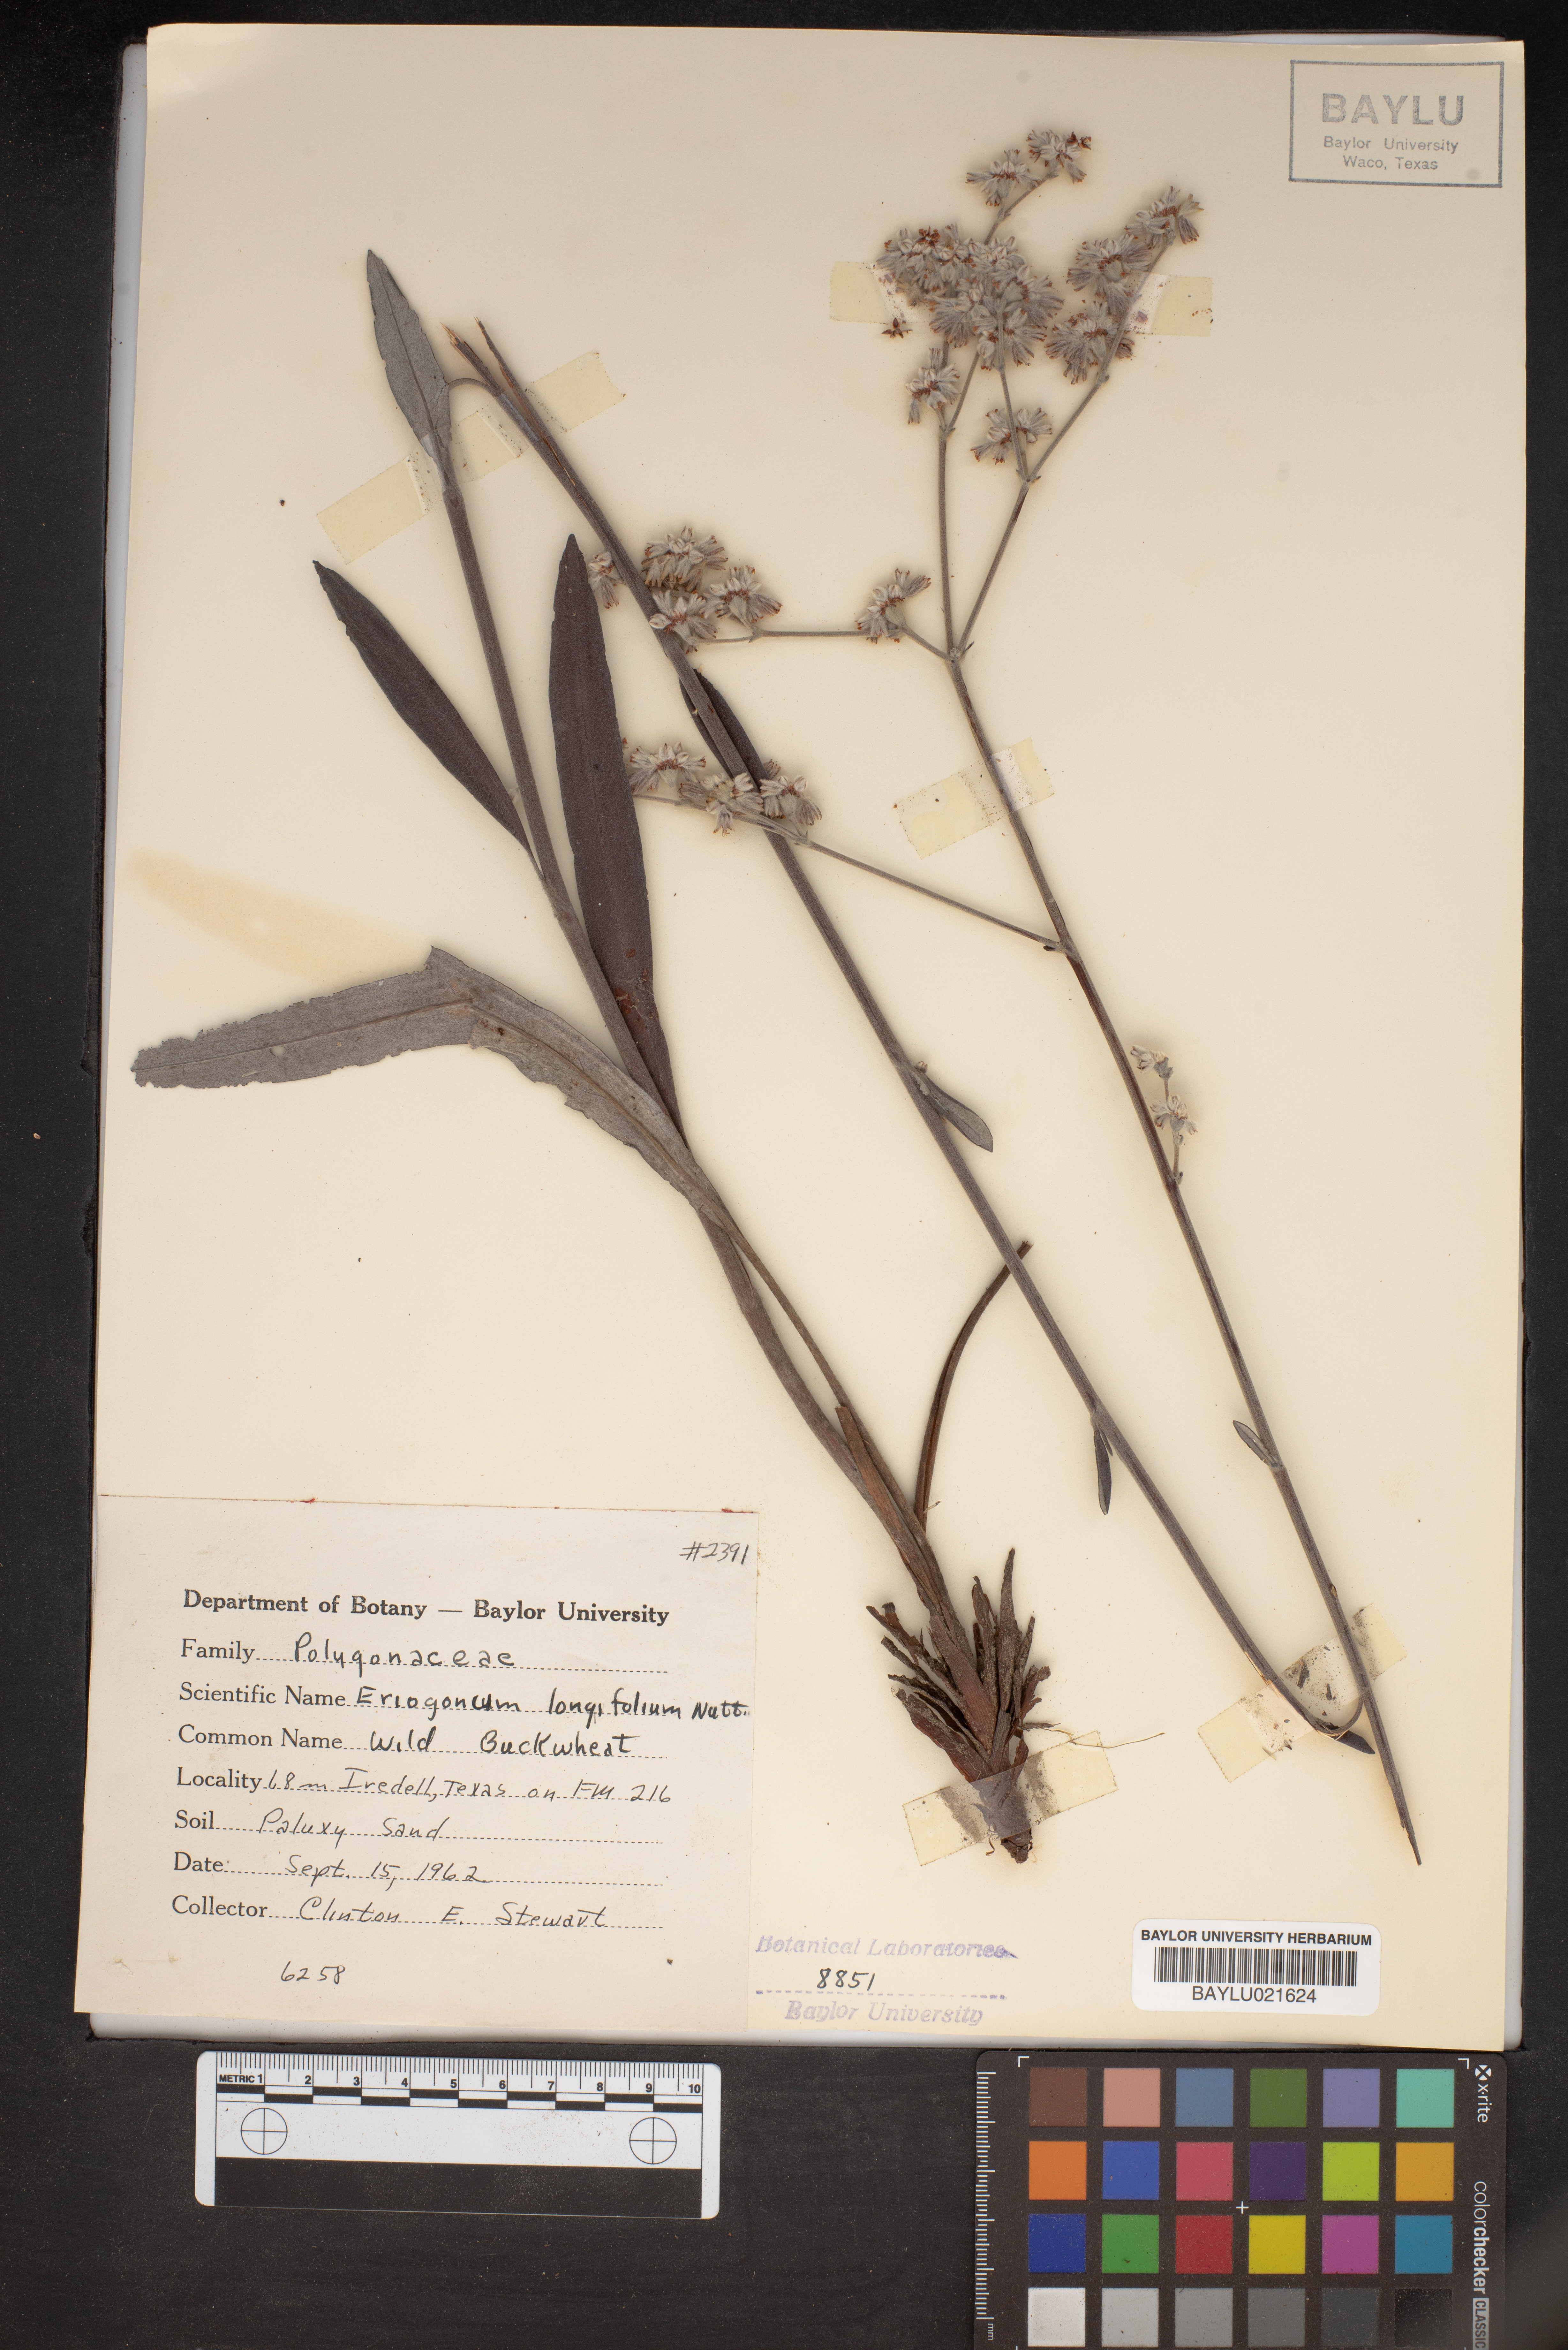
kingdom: Plantae
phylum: Tracheophyta
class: Magnoliopsida
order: Caryophyllales
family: Polygonaceae
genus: Eriogonum
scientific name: Eriogonum longifolium
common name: Longleaf wild buckwheat
